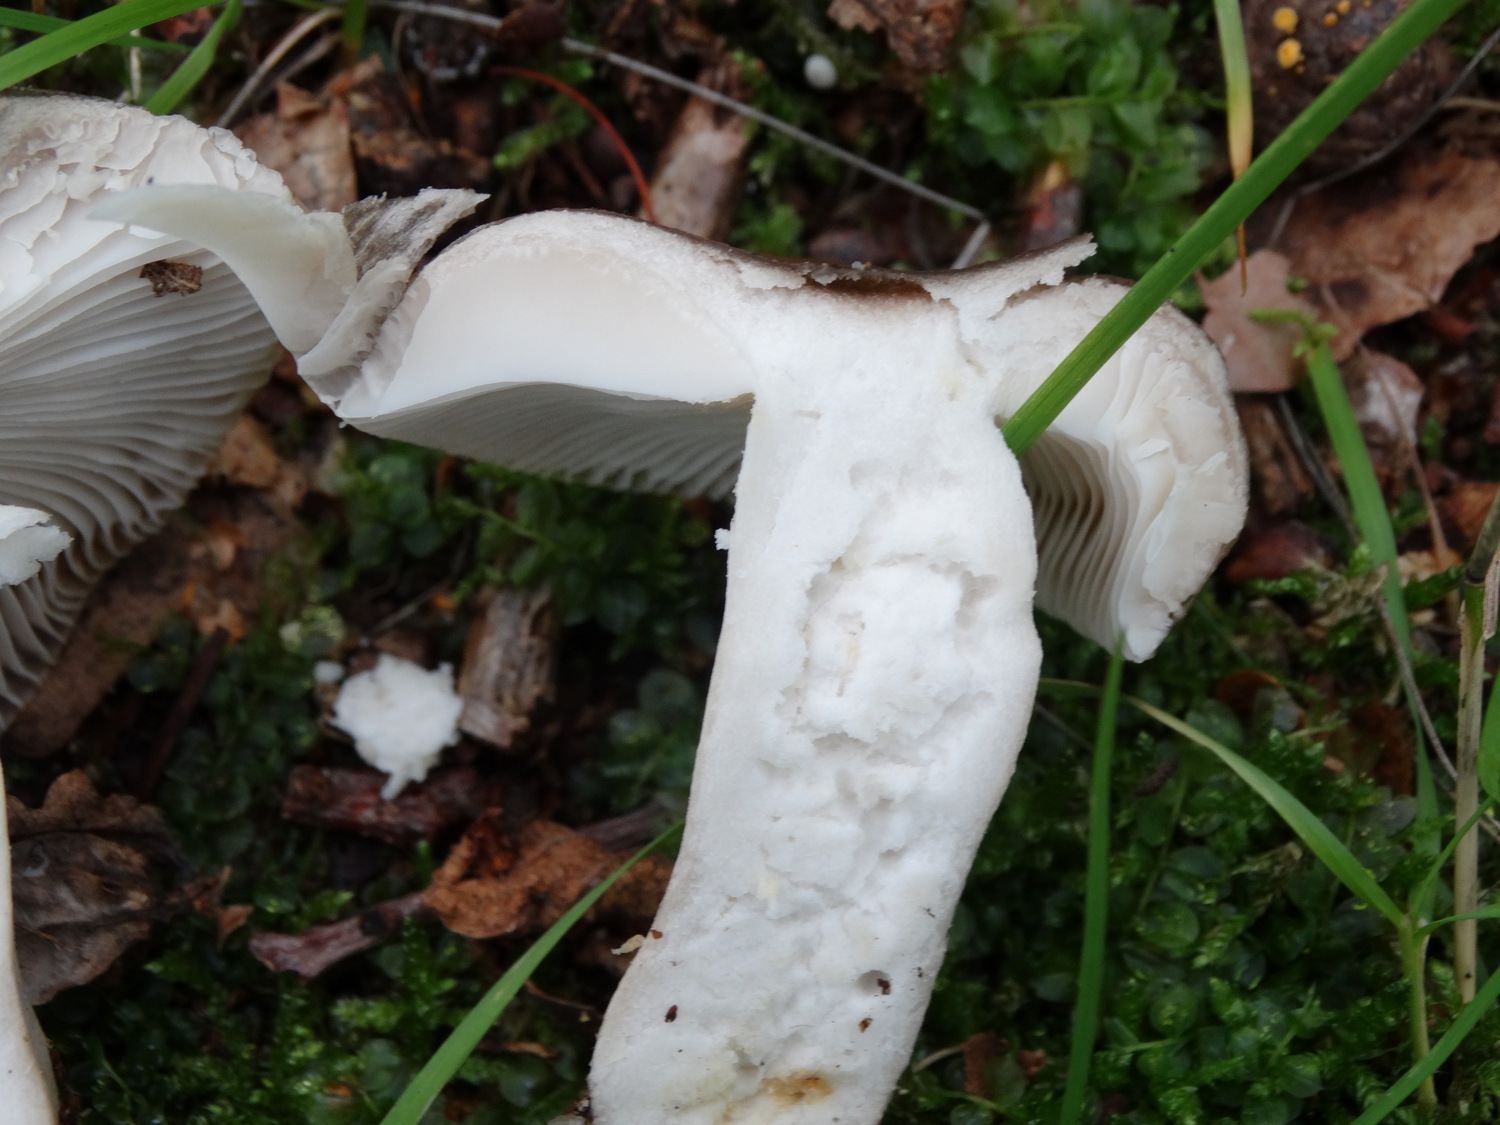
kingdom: Fungi
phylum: Basidiomycota
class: Agaricomycetes
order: Russulales
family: Russulaceae
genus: Russula
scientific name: Russula amoenolens
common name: skarp kam-skørhat
